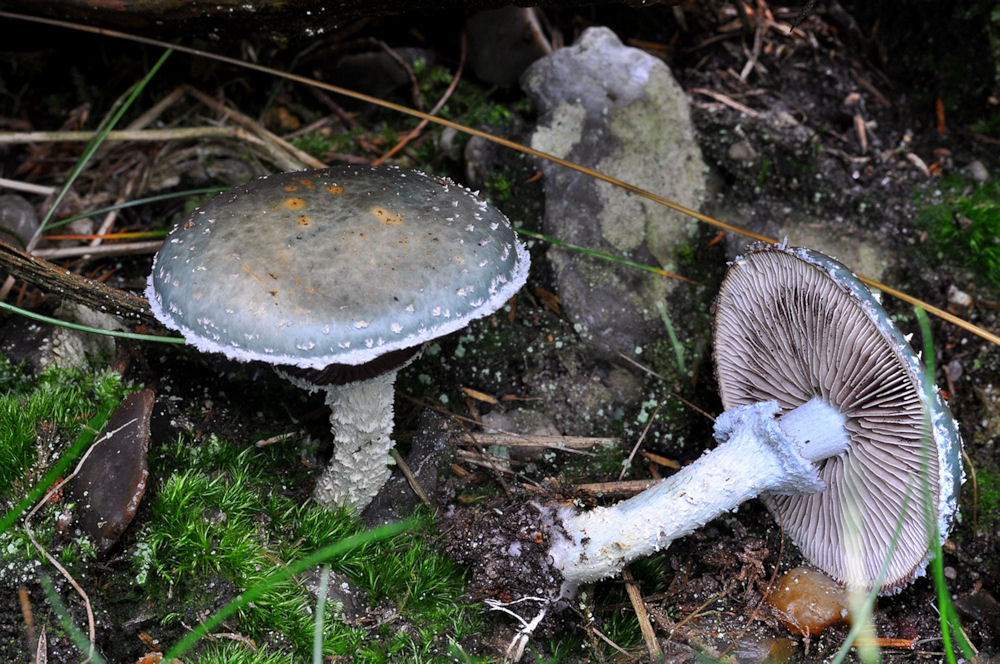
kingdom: Fungi
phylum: Basidiomycota
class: Agaricomycetes
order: Agaricales
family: Strophariaceae
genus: Stropharia
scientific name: Stropharia aeruginosa
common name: spanskgrøn bredblad
